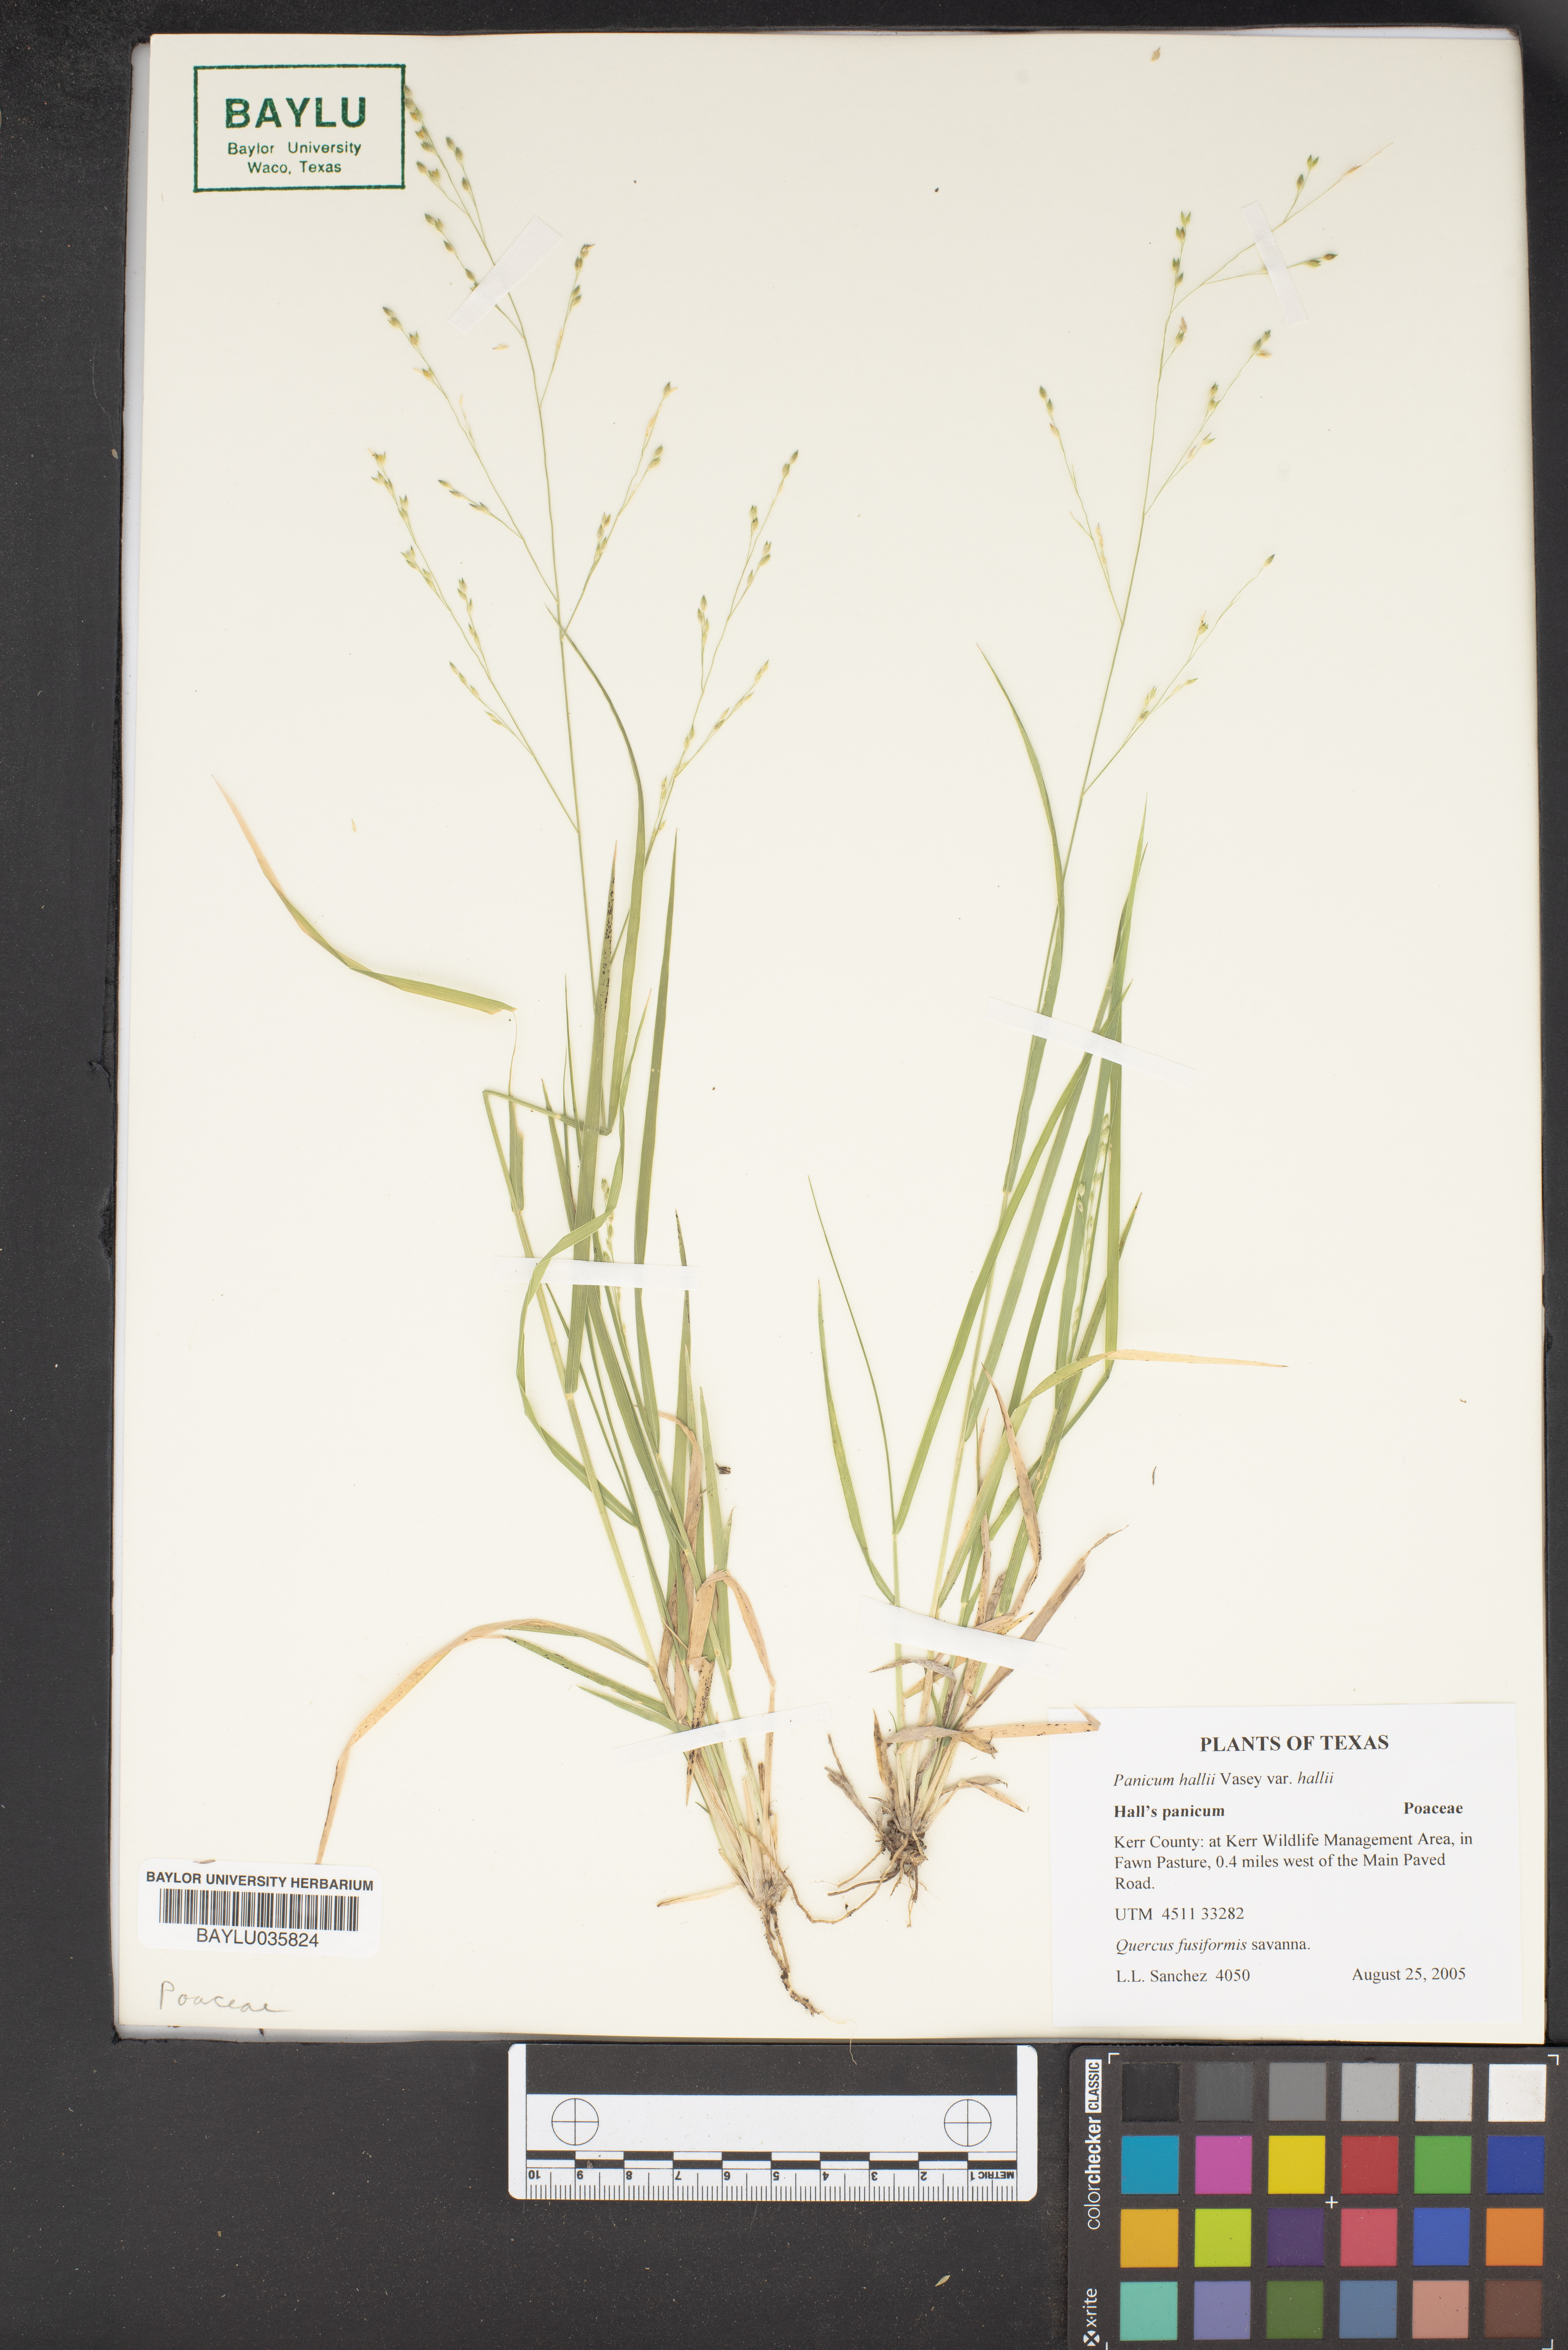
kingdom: Plantae
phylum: Tracheophyta
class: Liliopsida
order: Poales
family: Poaceae
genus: Panicum
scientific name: Panicum hallii
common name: Hall's witchgrass
